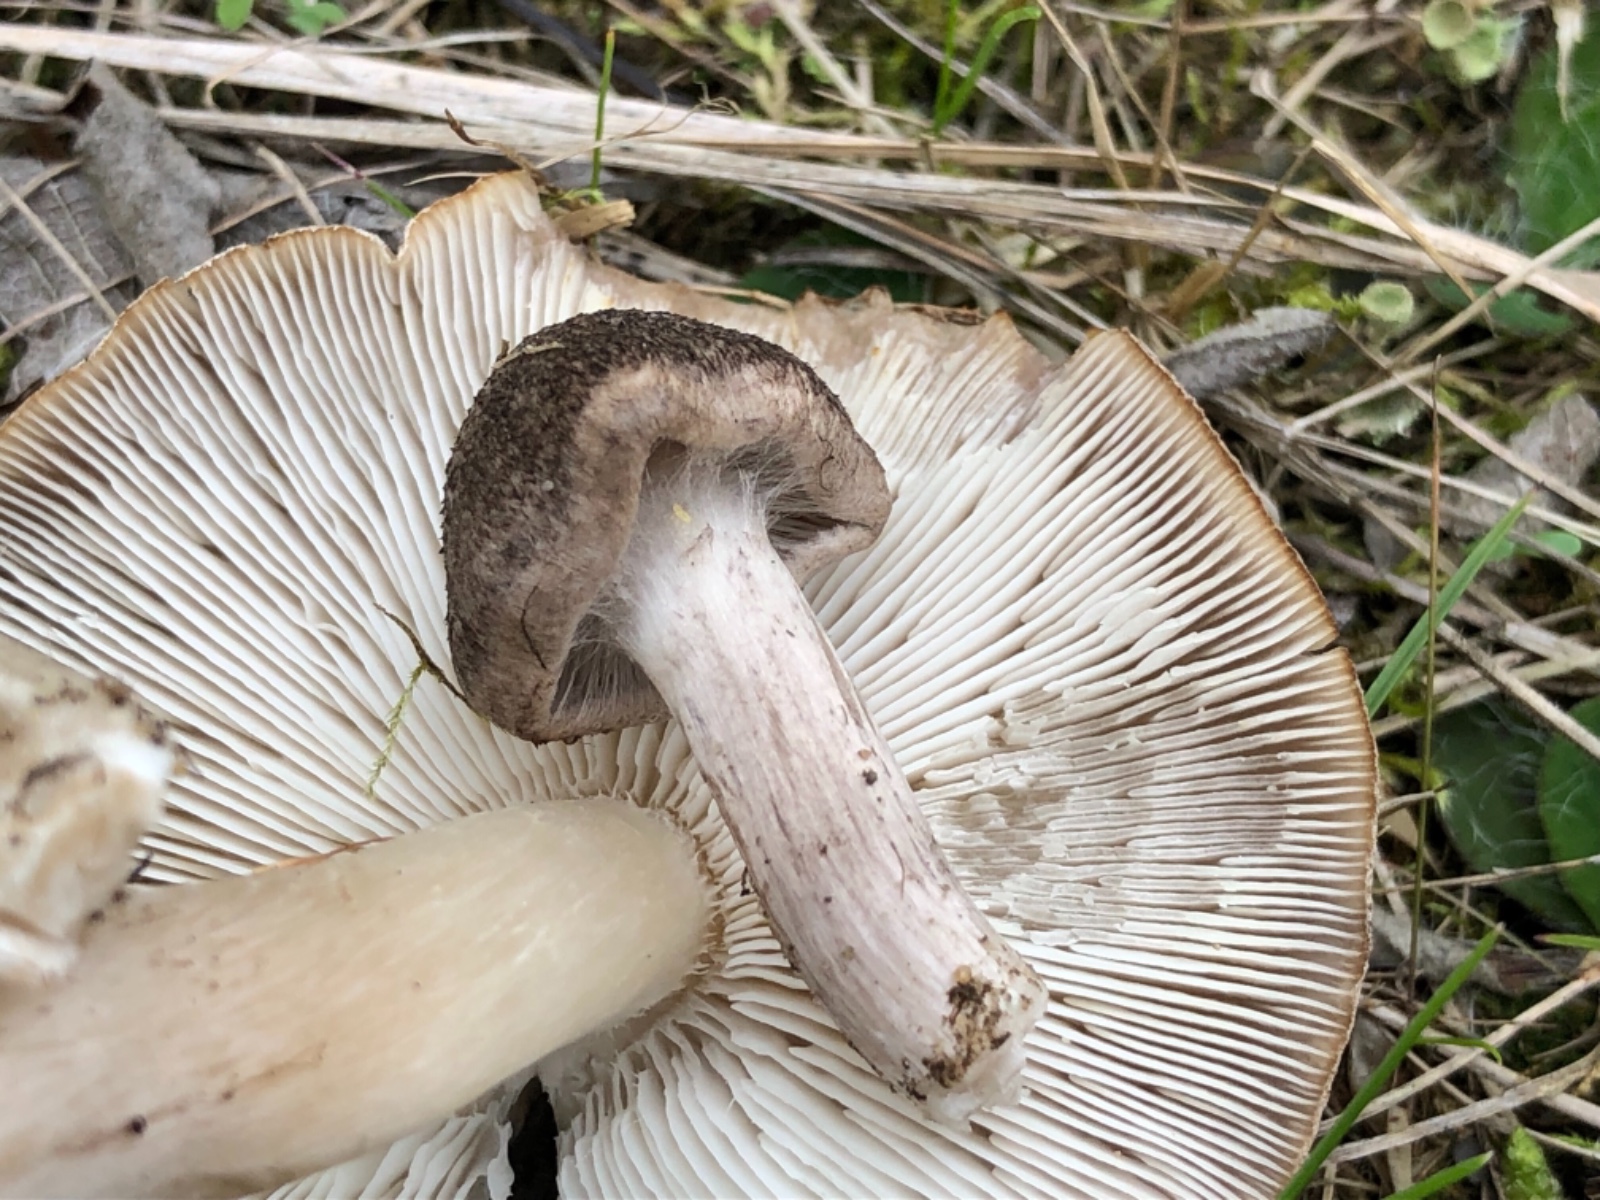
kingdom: Fungi
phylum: Basidiomycota
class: Agaricomycetes
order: Agaricales
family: Tricholomataceae
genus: Tricholoma
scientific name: Tricholoma argyraceum
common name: slør-ridderhat
